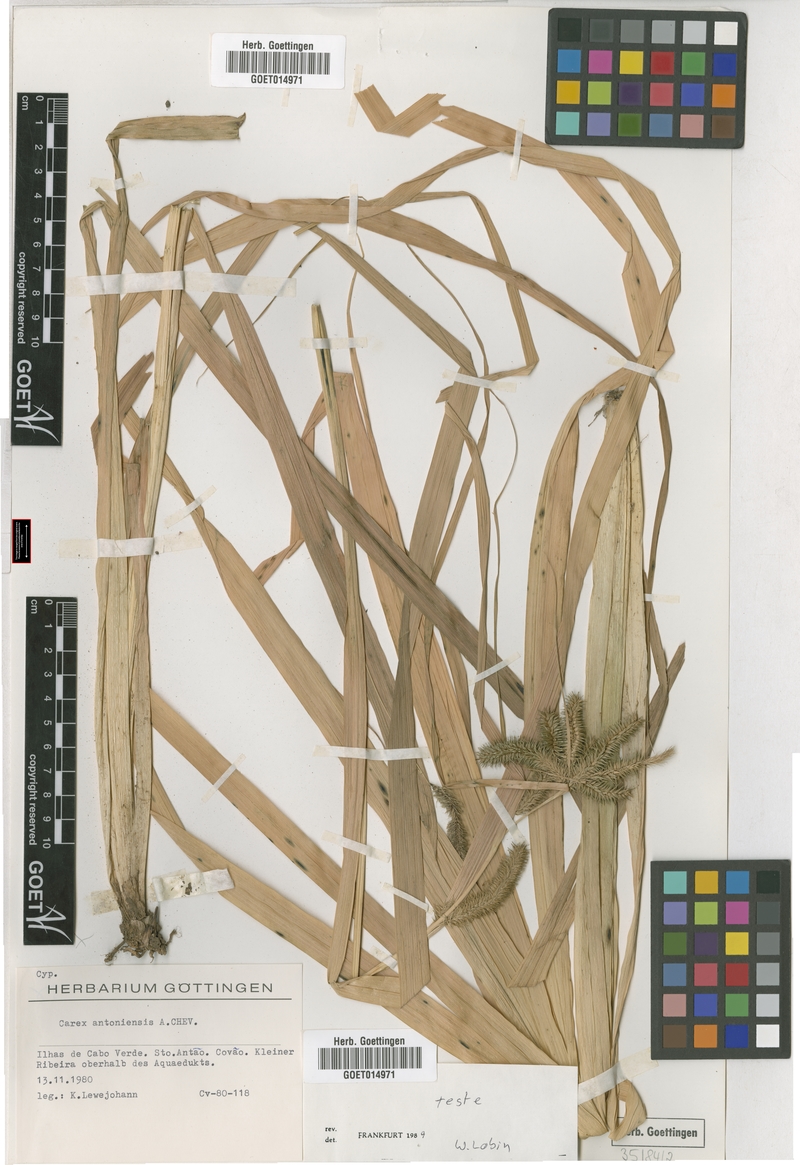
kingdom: Plantae
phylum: Tracheophyta
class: Liliopsida
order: Poales
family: Cyperaceae
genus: Carex
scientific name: Carex antoniensis
